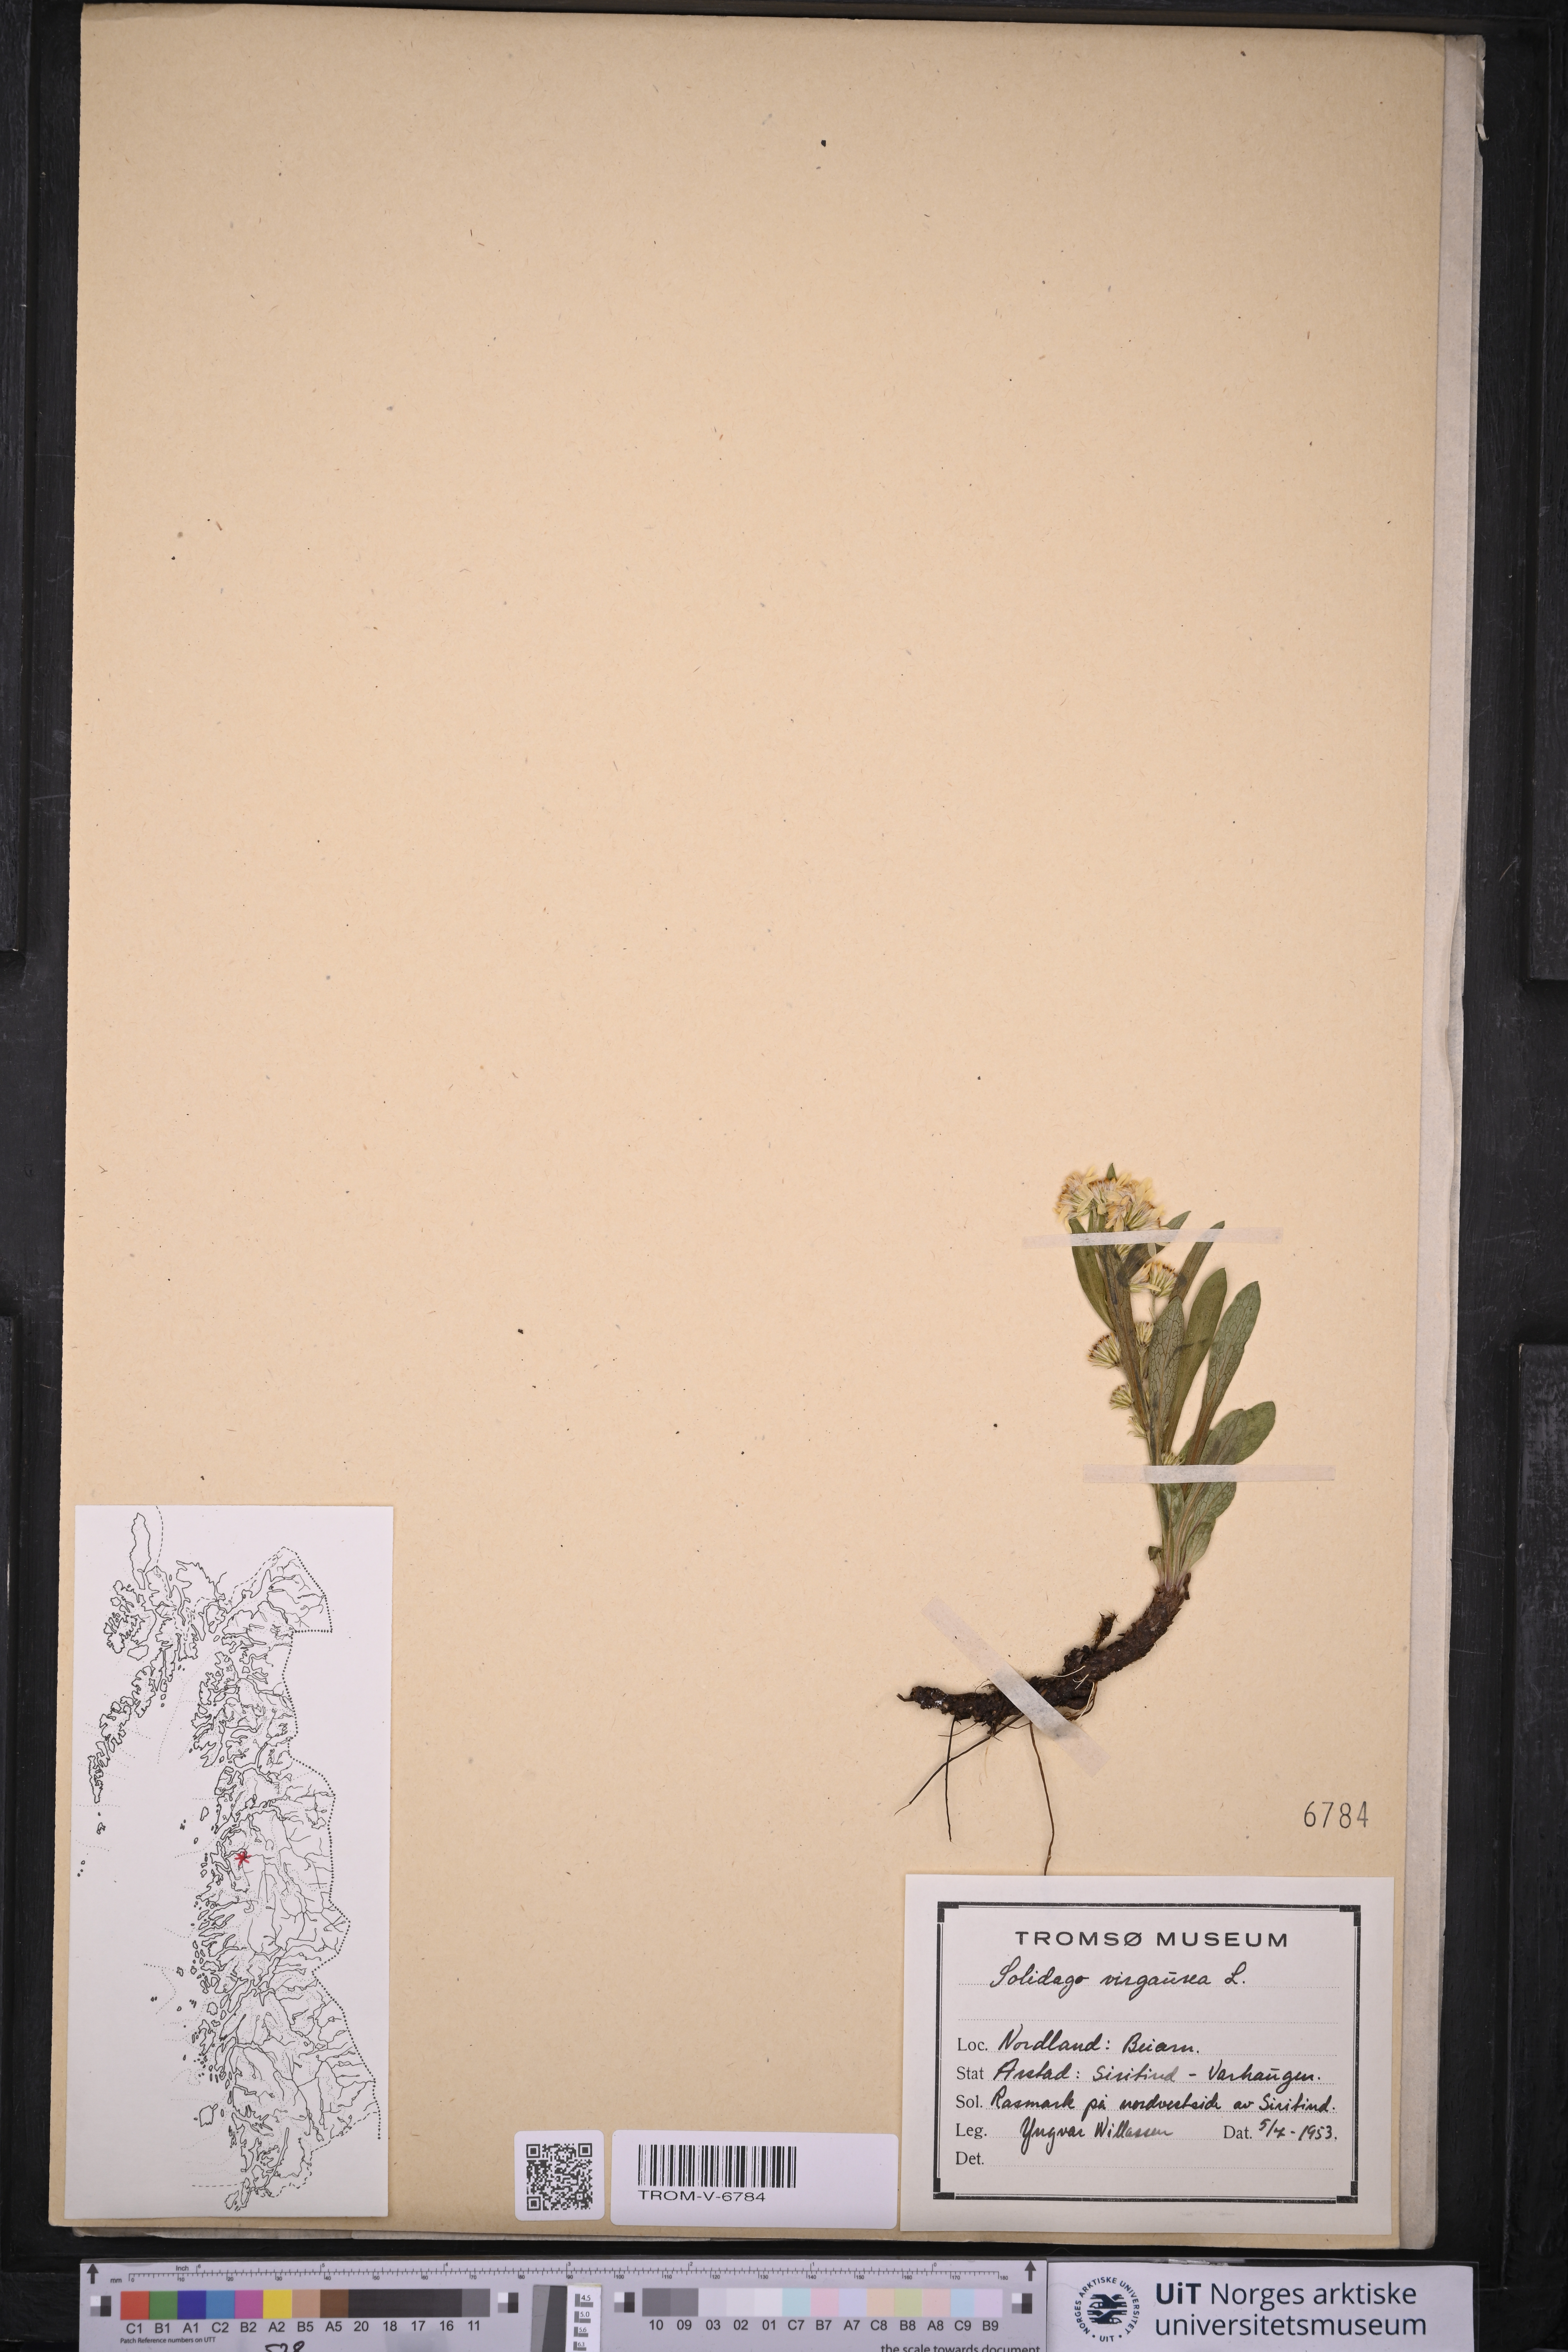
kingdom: Plantae
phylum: Tracheophyta
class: Magnoliopsida
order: Asterales
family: Asteraceae
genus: Solidago
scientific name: Solidago virgaurea
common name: Goldenrod
